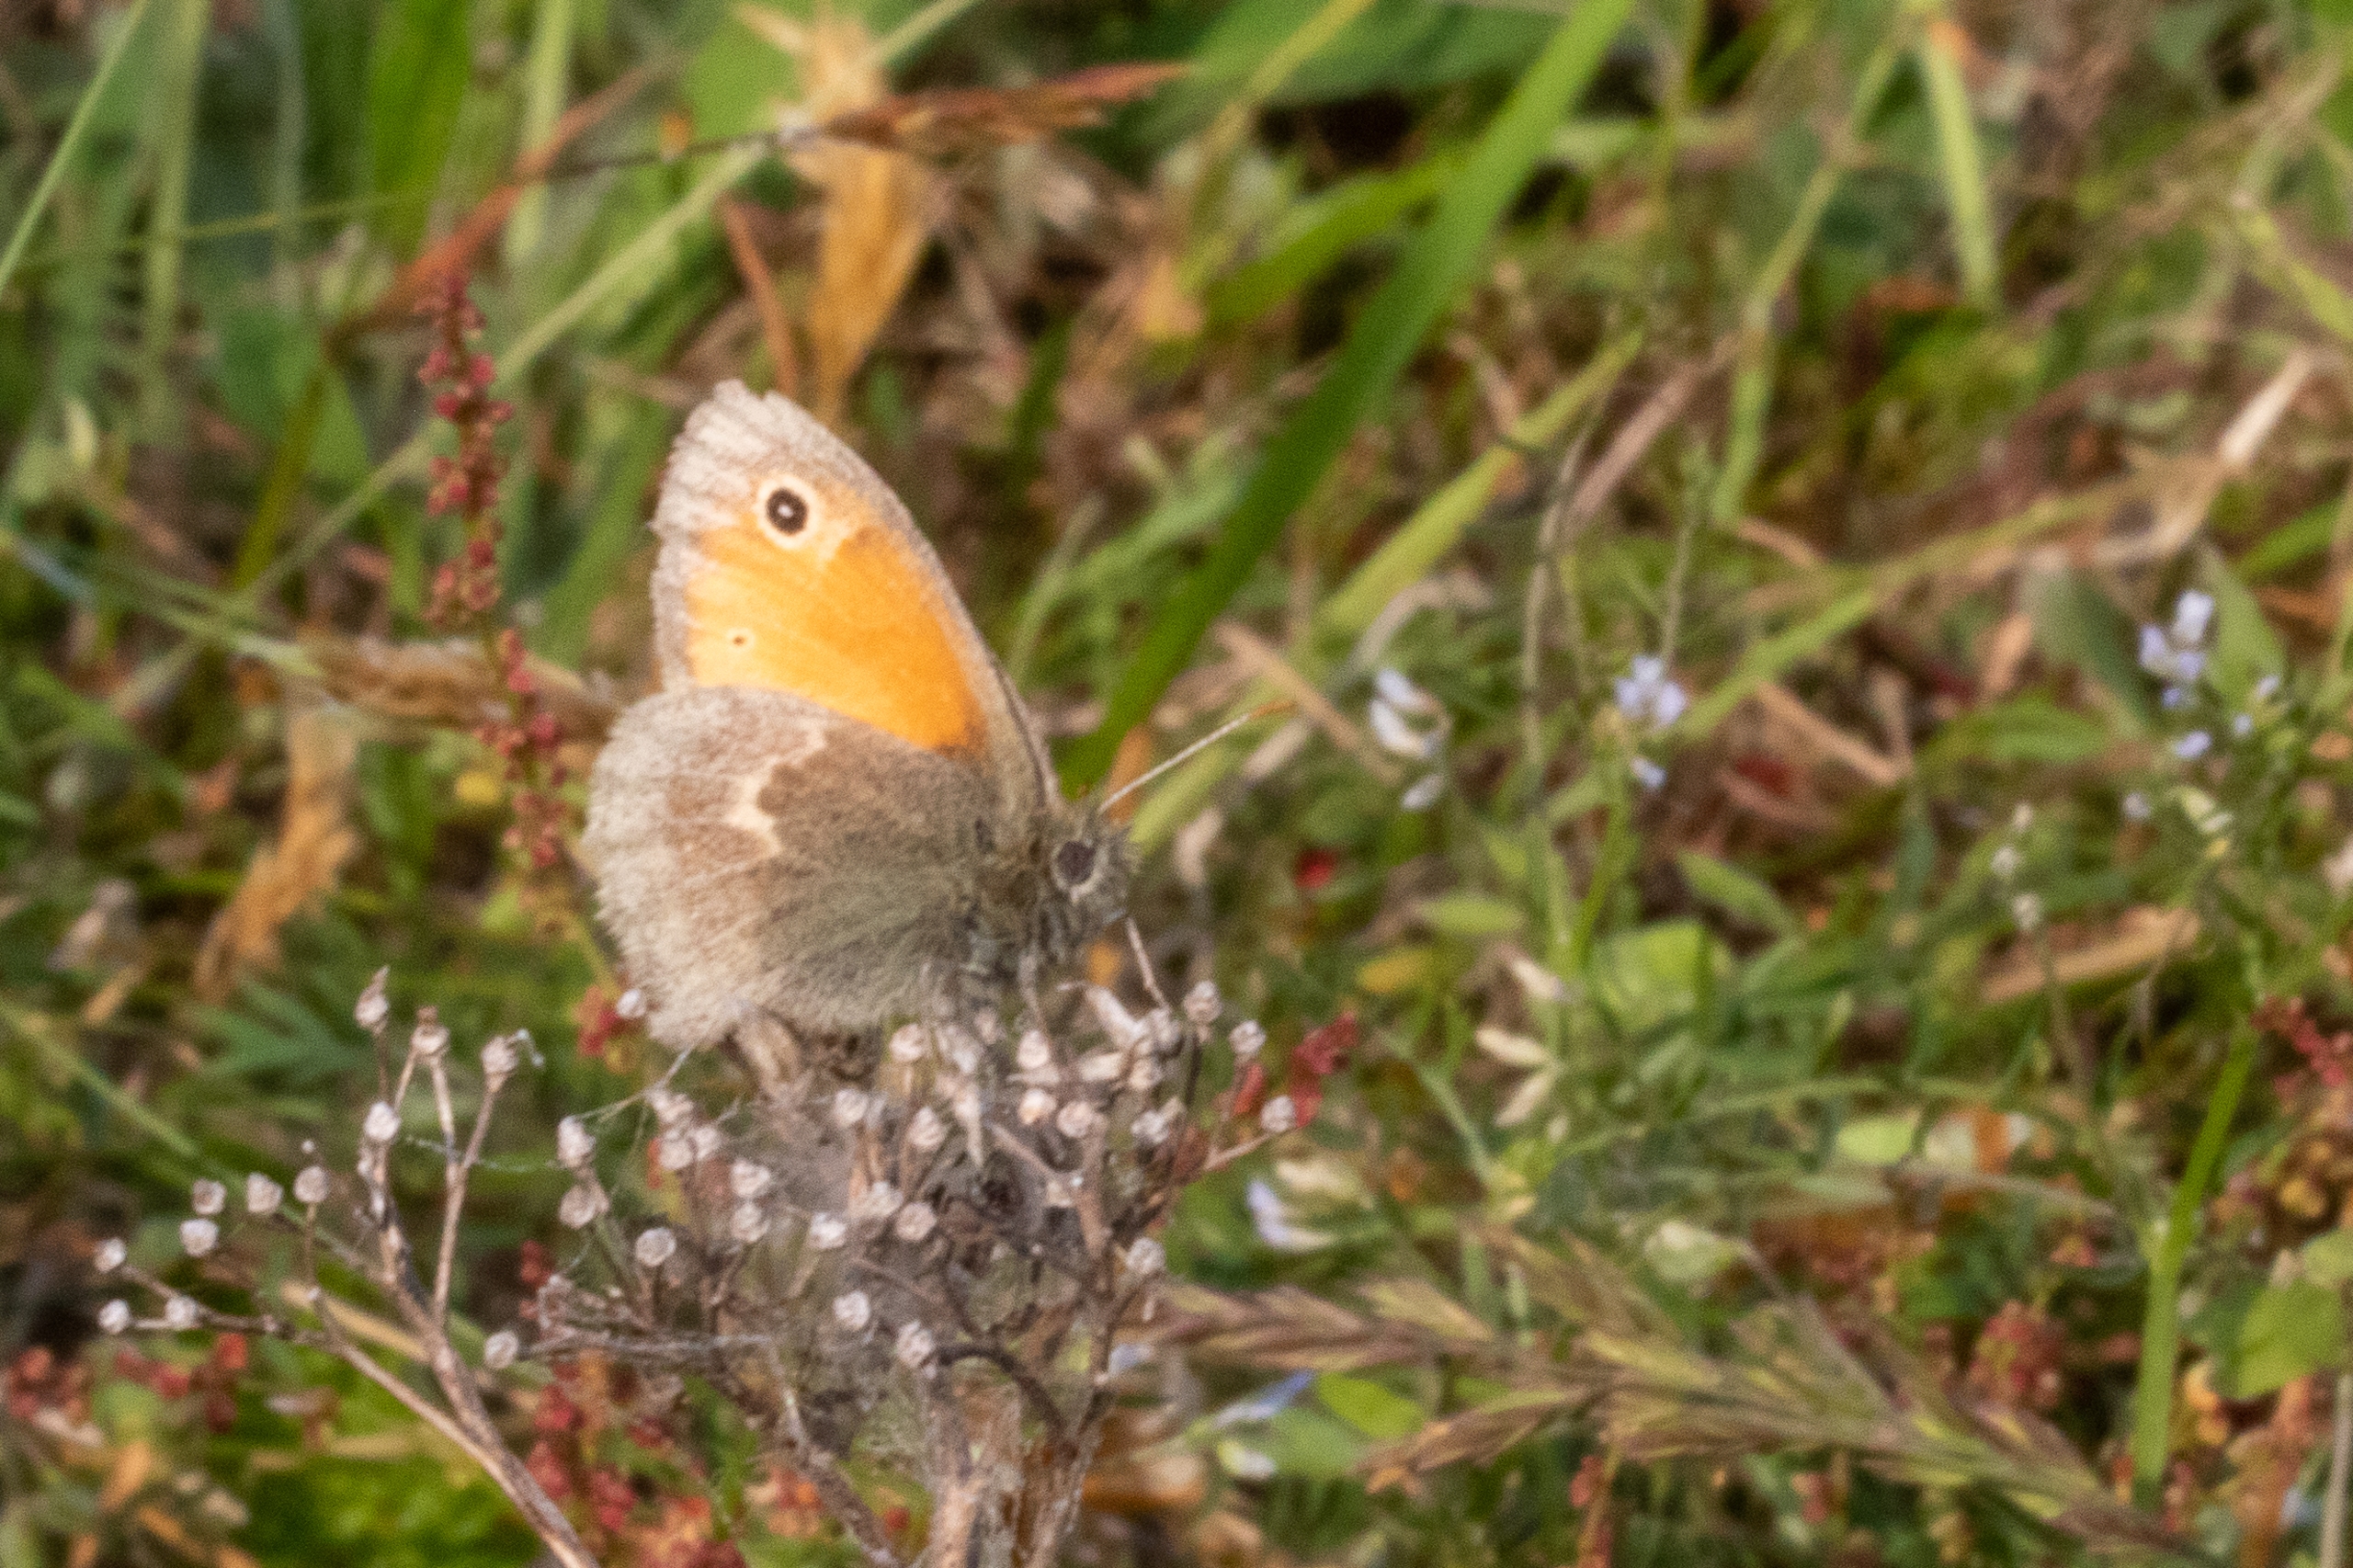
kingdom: Animalia
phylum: Arthropoda
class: Insecta
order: Lepidoptera
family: Nymphalidae
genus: Coenonympha
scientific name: Coenonympha pamphilus
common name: Okkergul randøje
